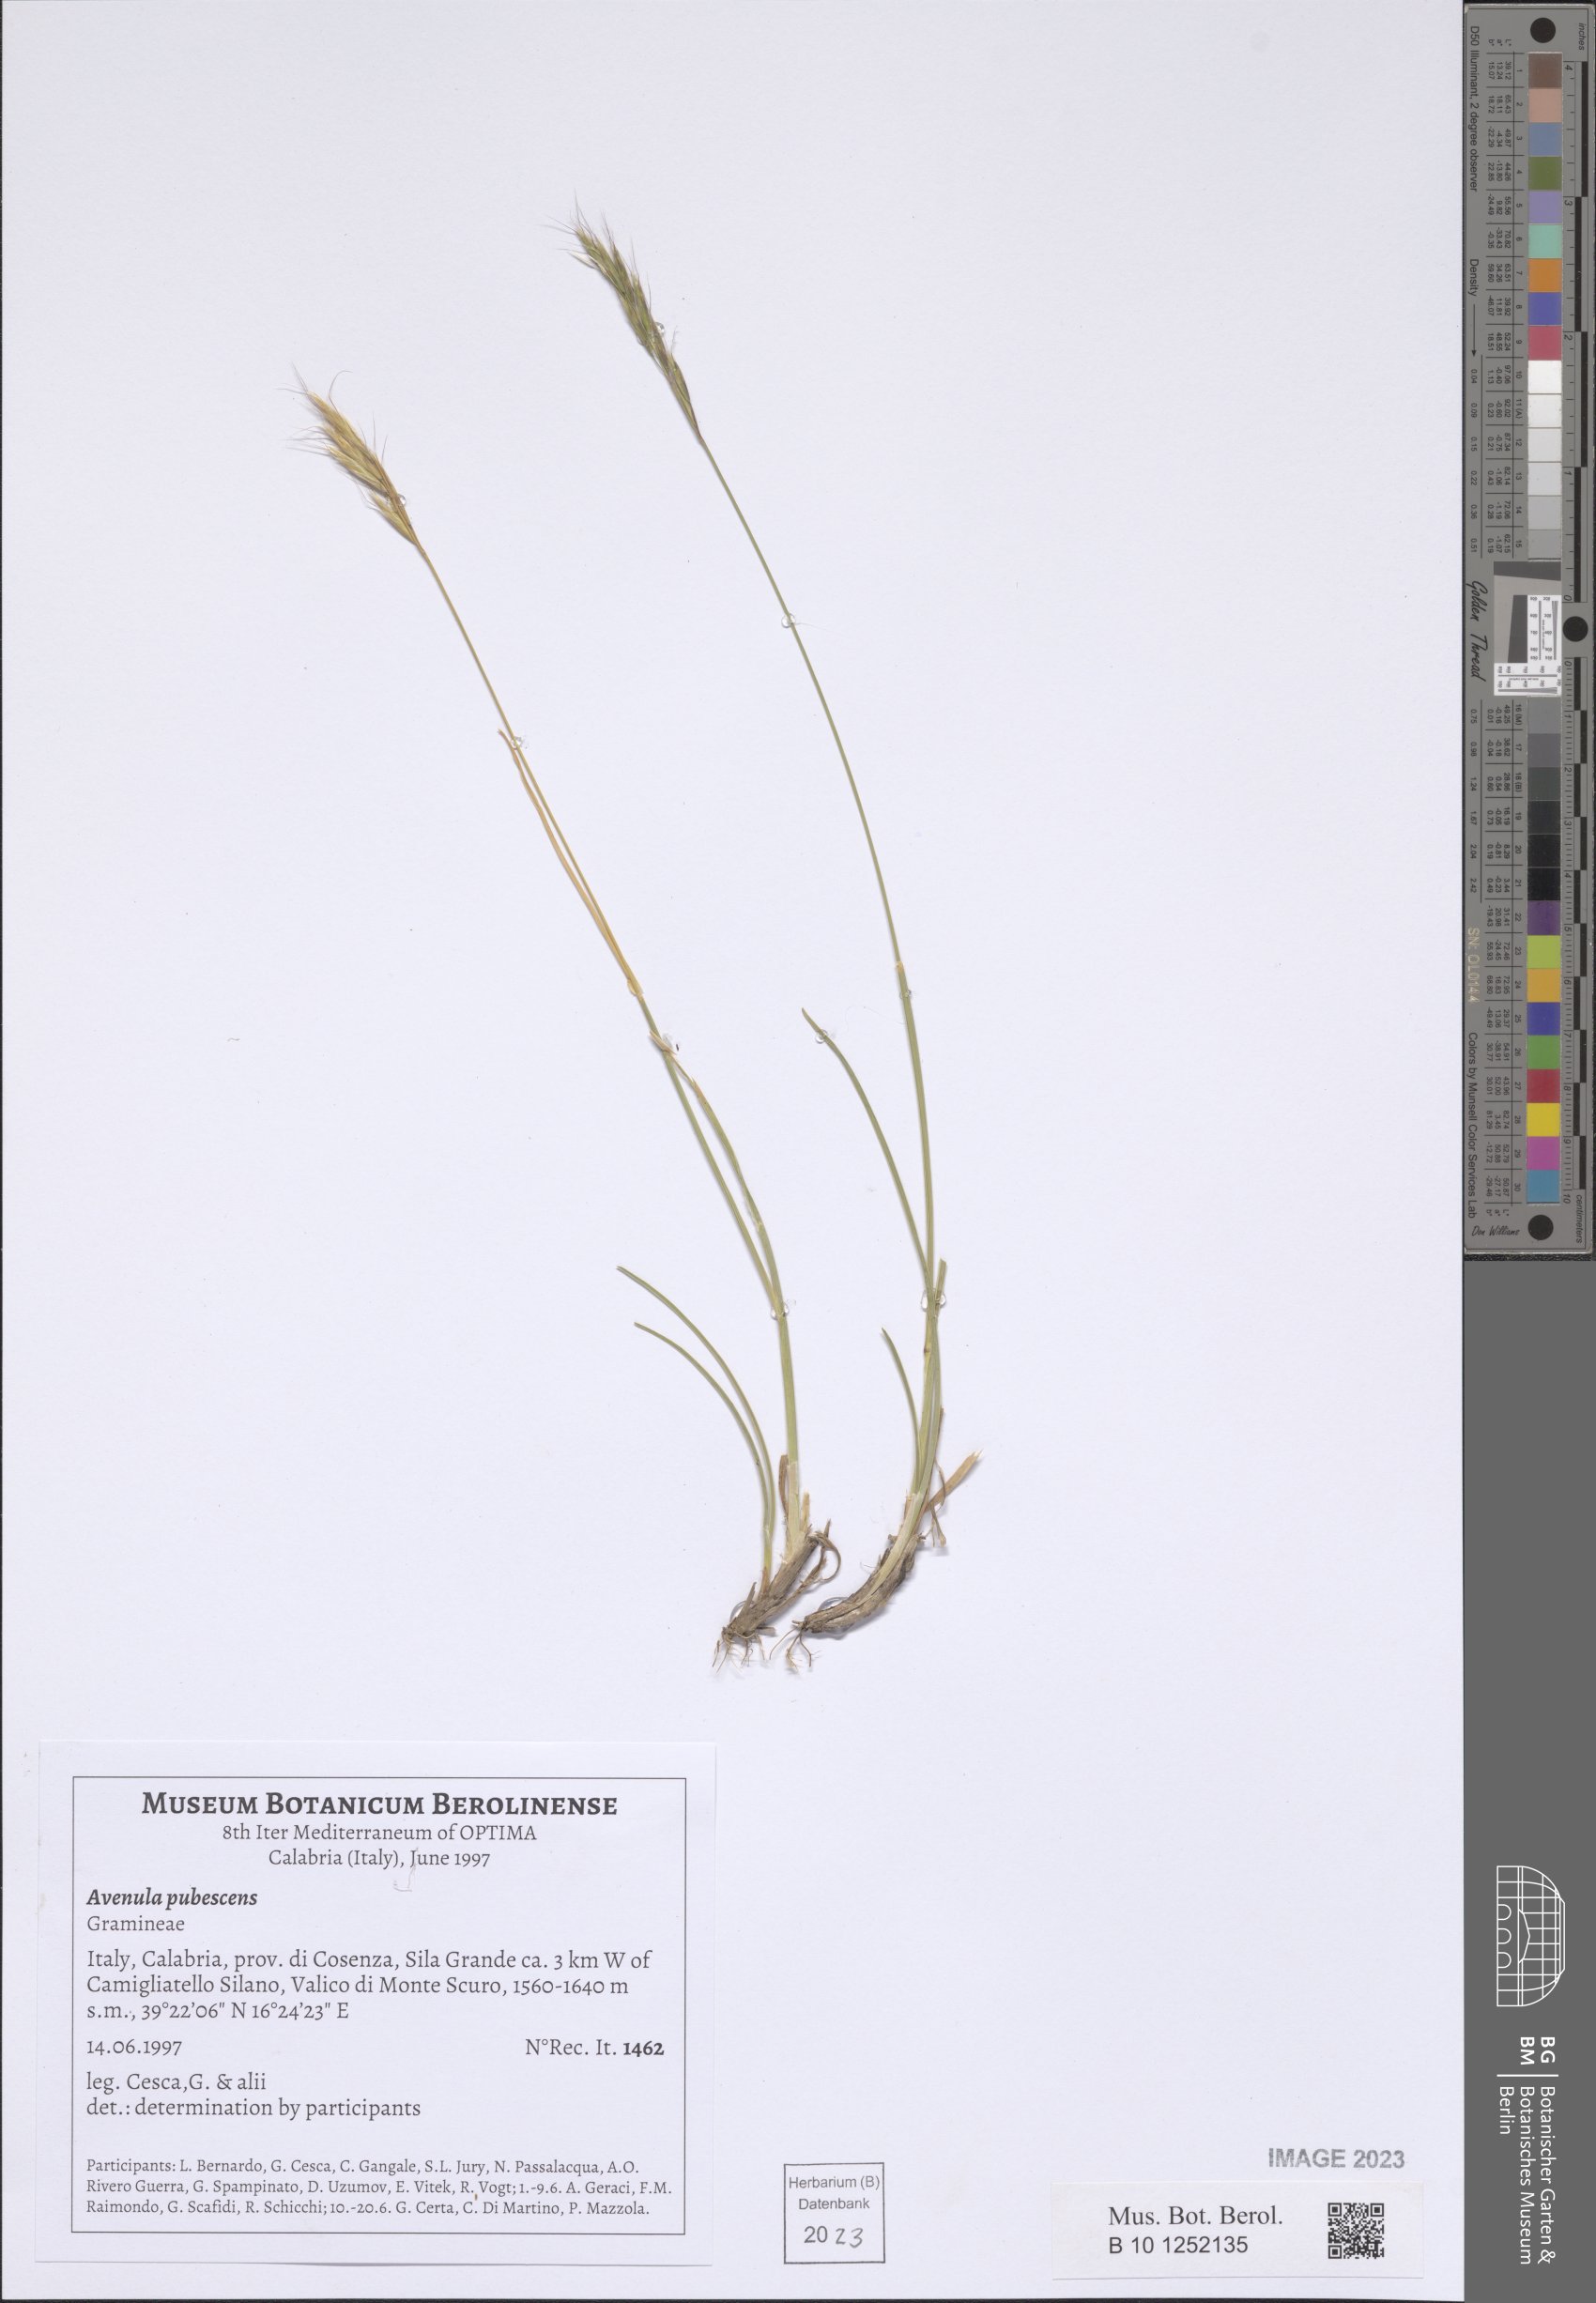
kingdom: Plantae
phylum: Tracheophyta
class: Liliopsida
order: Poales
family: Poaceae
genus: Avenula
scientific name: Avenula pubescens
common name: Downy alpine oatgrass
